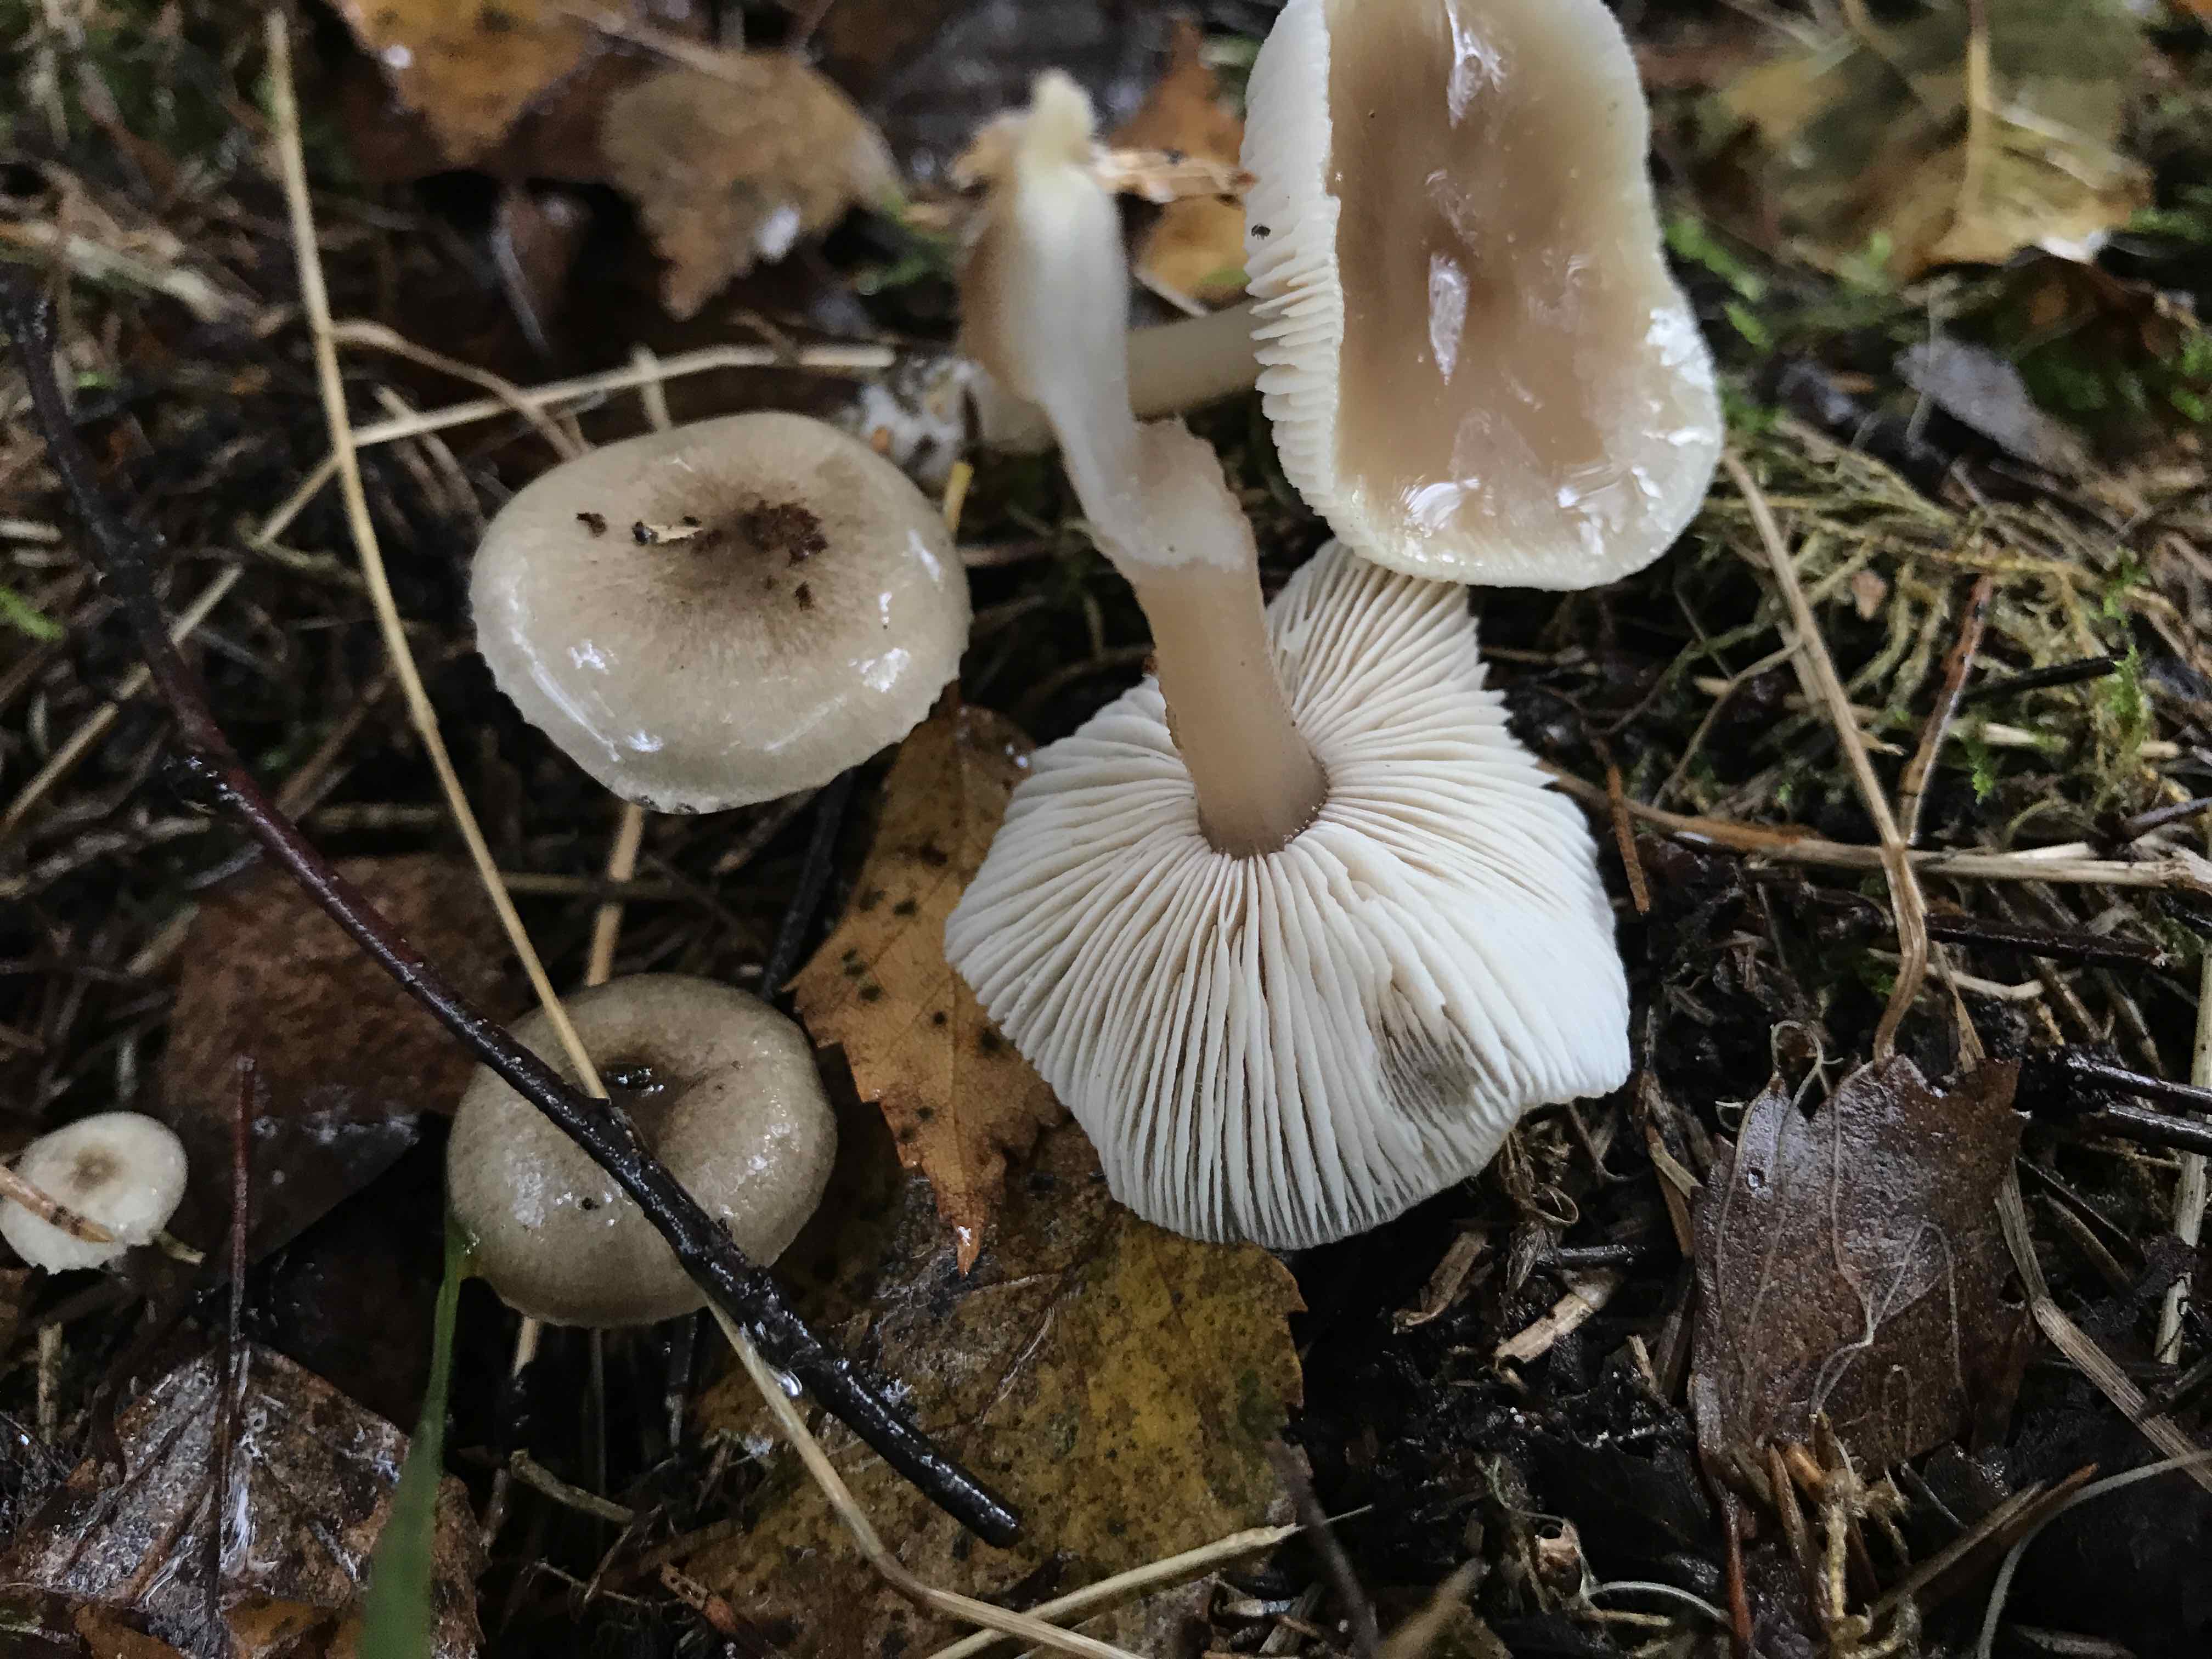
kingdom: Fungi
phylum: Basidiomycota
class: Agaricomycetes
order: Agaricales
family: Omphalotaceae
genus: Rhodocollybia
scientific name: Rhodocollybia asema
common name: horngrå fladhat
